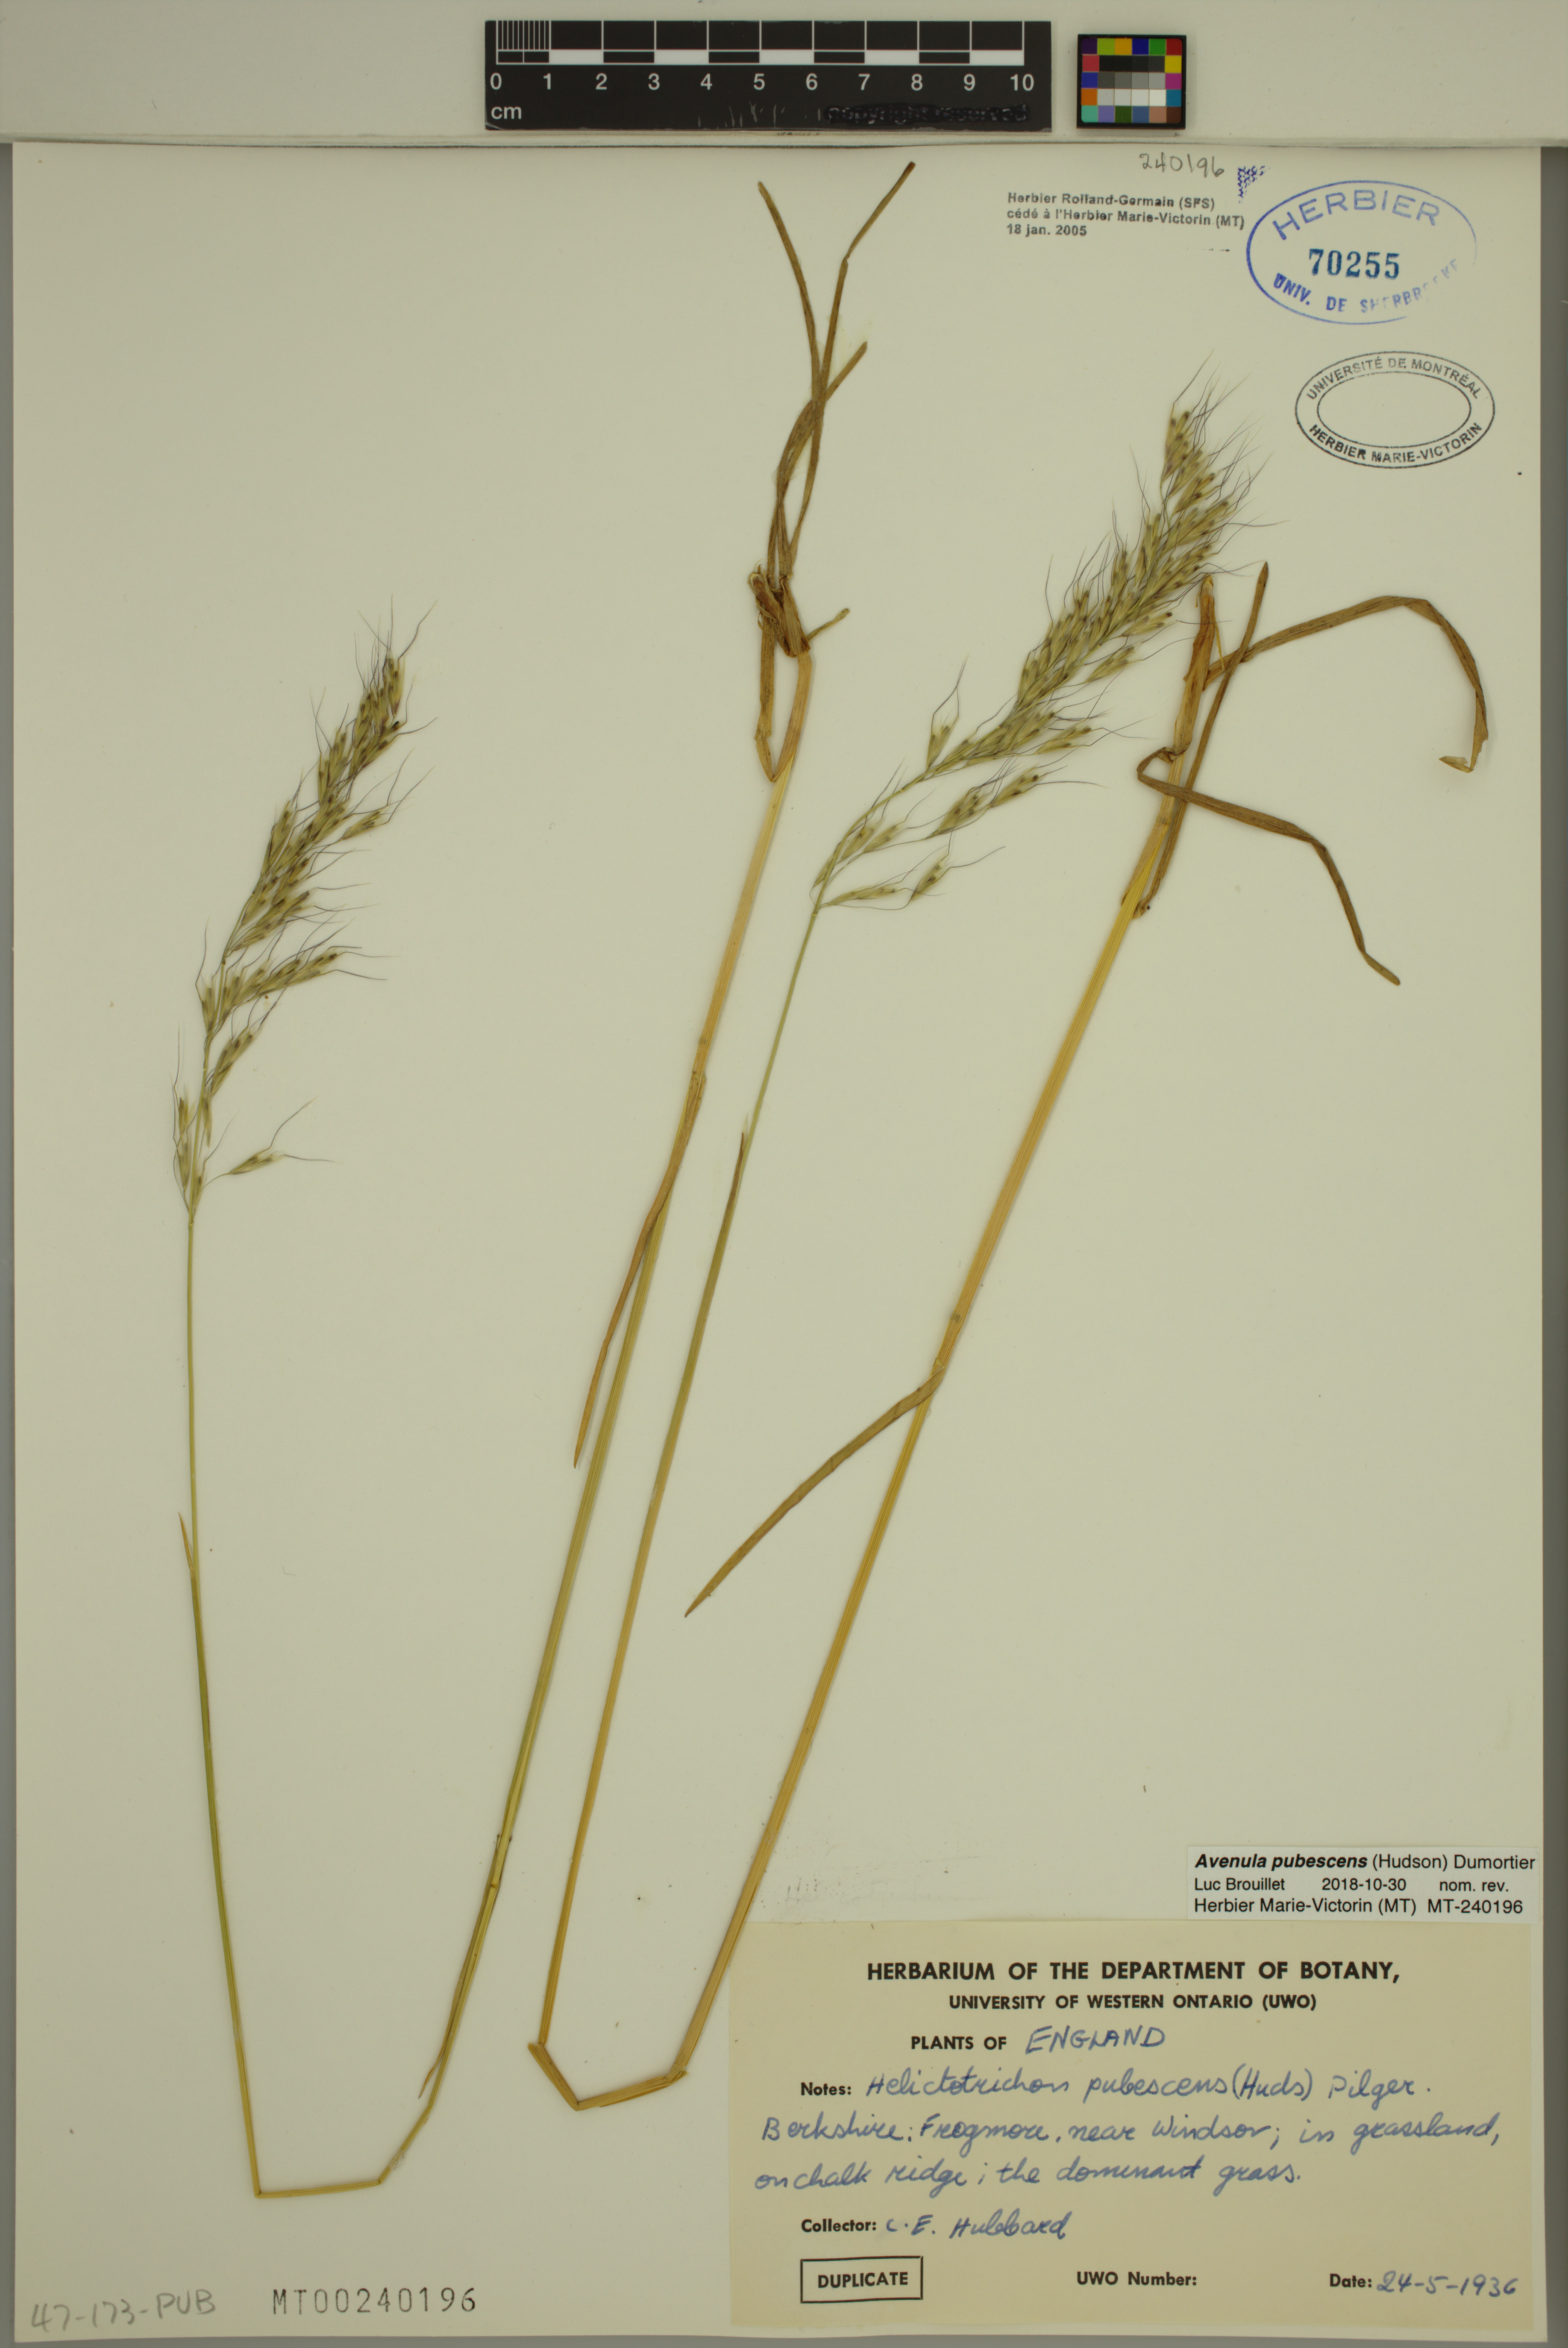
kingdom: Plantae
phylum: Tracheophyta
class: Liliopsida
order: Poales
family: Poaceae
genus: Avenula
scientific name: Avenula pubescens
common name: Downy alpine oatgrass
